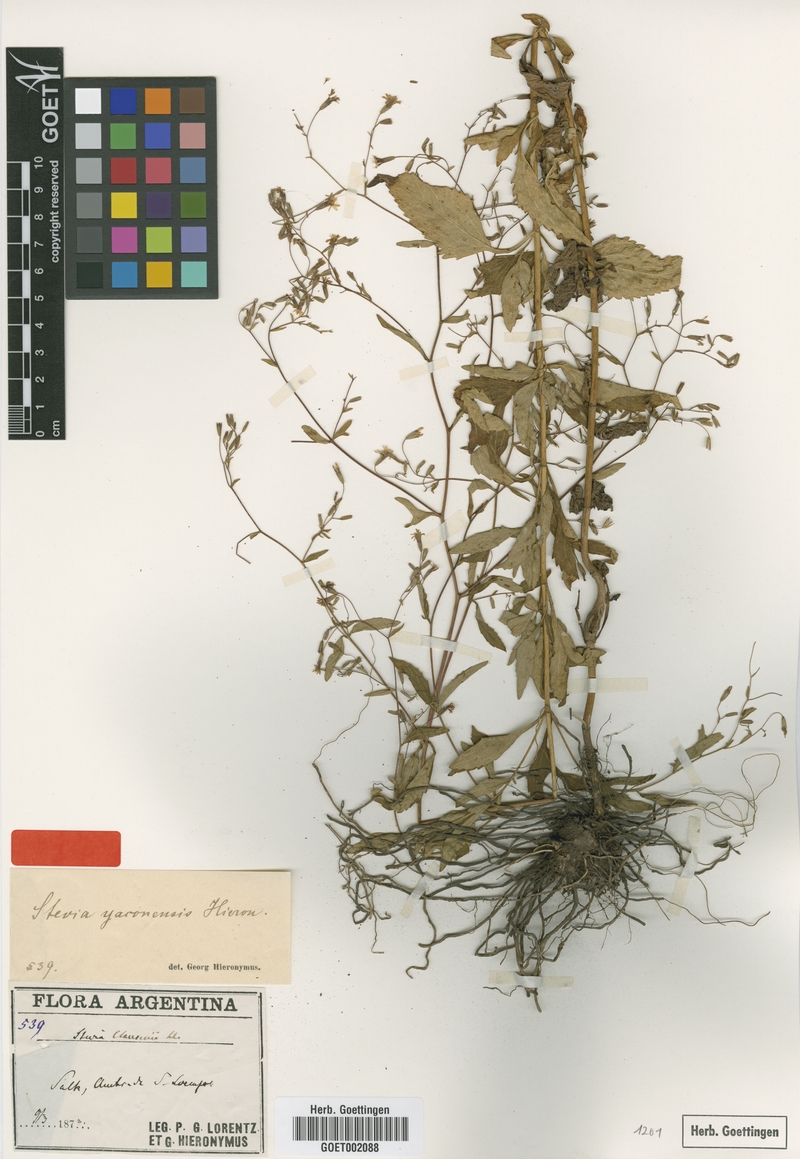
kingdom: Plantae
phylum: Tracheophyta
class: Magnoliopsida
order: Asterales
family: Asteraceae
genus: Stevia
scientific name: Stevia yaconensis
